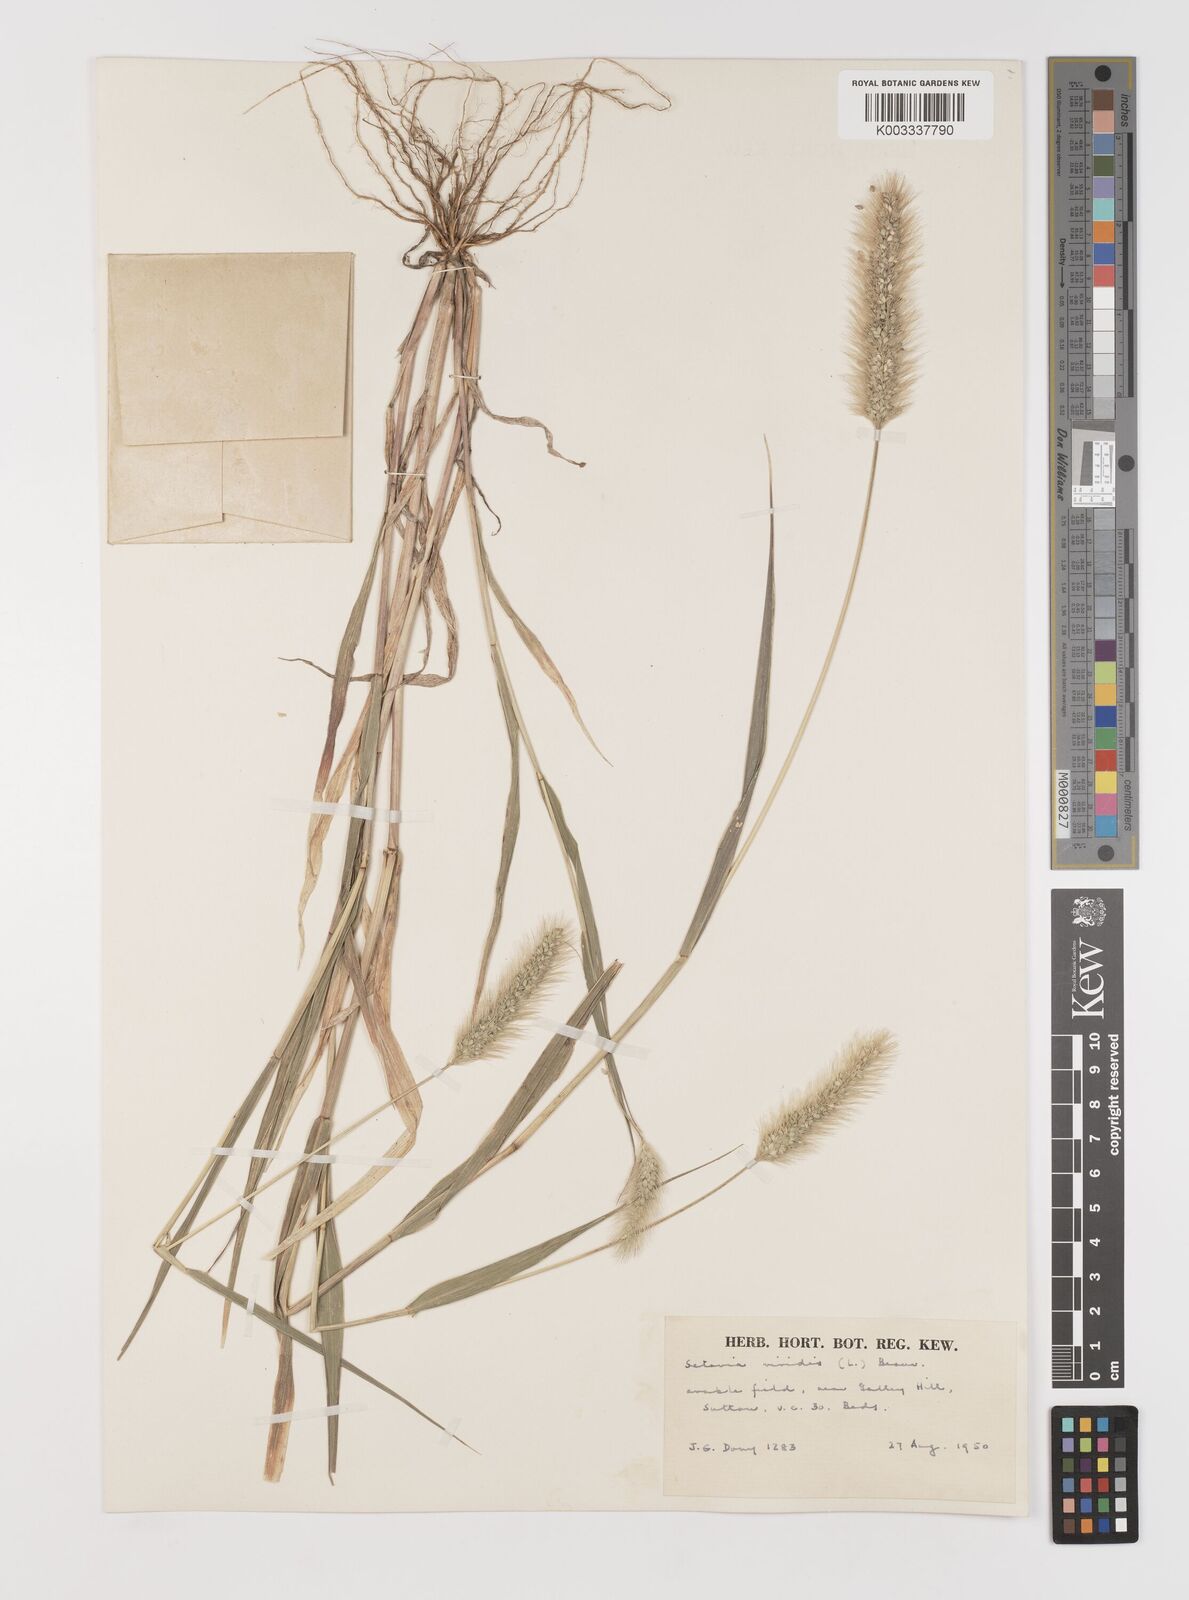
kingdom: Plantae
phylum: Tracheophyta
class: Liliopsida
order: Poales
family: Poaceae
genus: Setaria
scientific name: Setaria viridis
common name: Green bristlegrass
